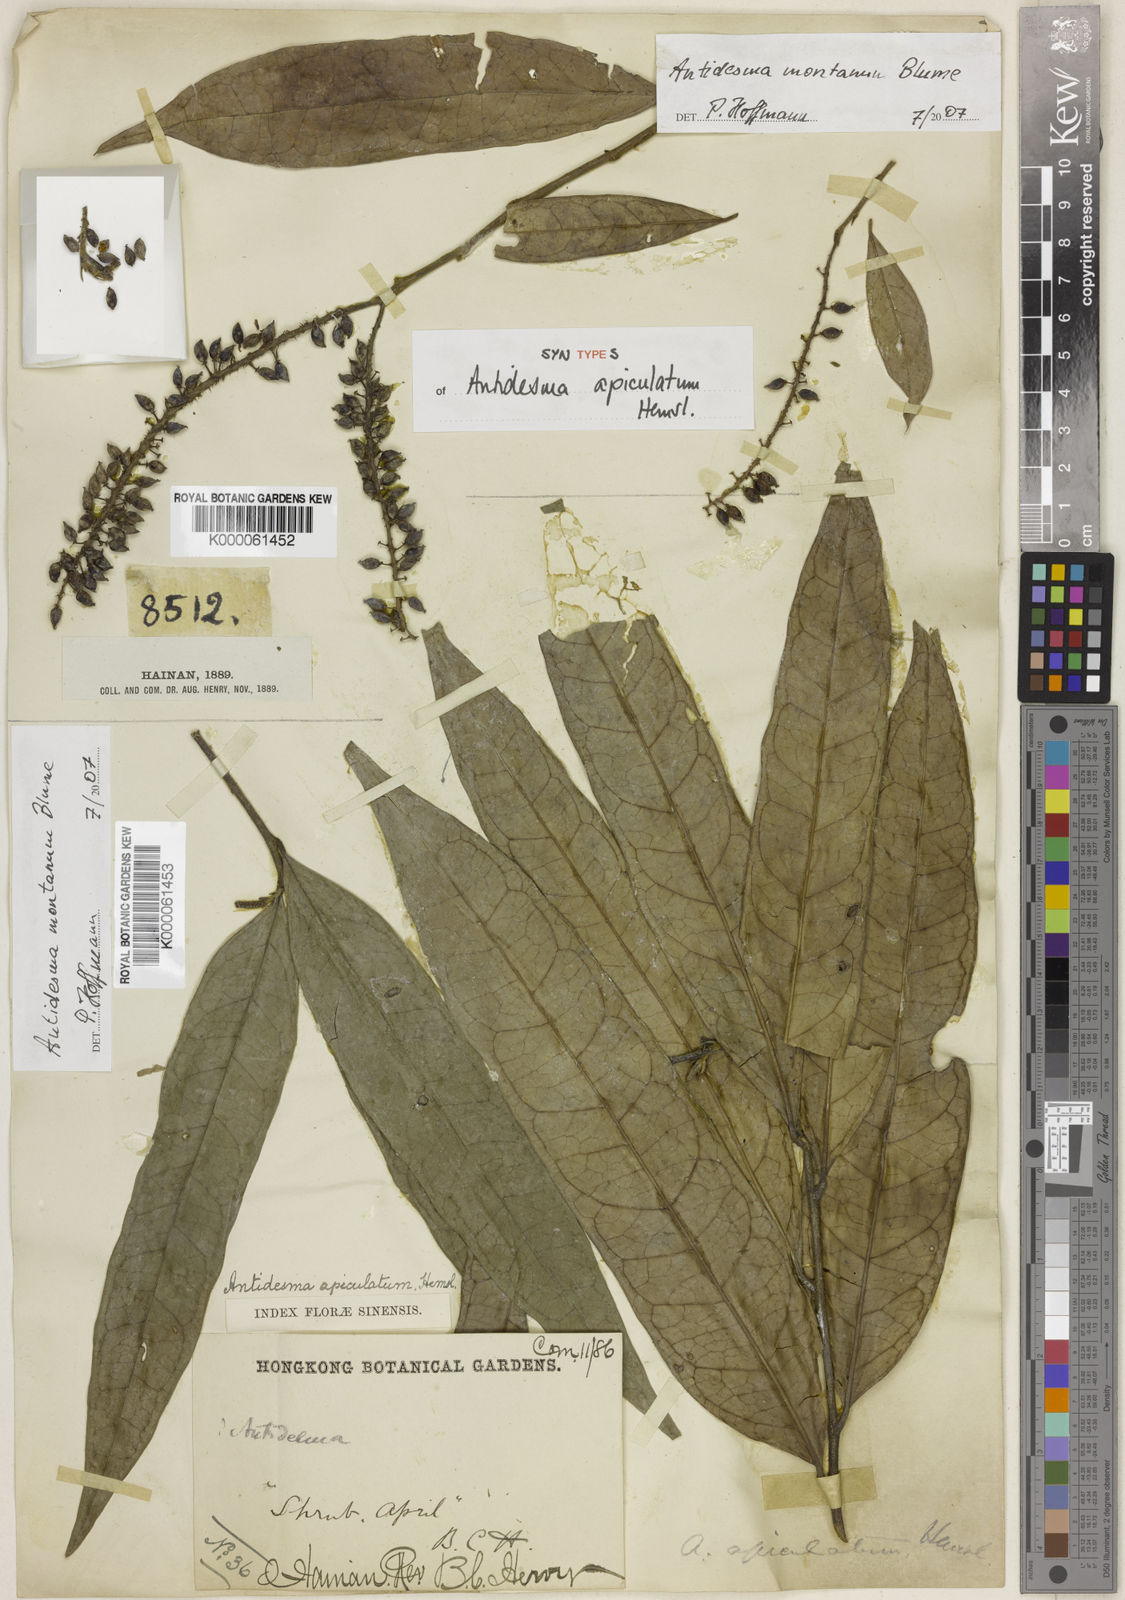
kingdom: Plantae
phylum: Tracheophyta
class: Magnoliopsida
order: Malpighiales
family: Phyllanthaceae
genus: Antidesma
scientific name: Antidesma montanum
